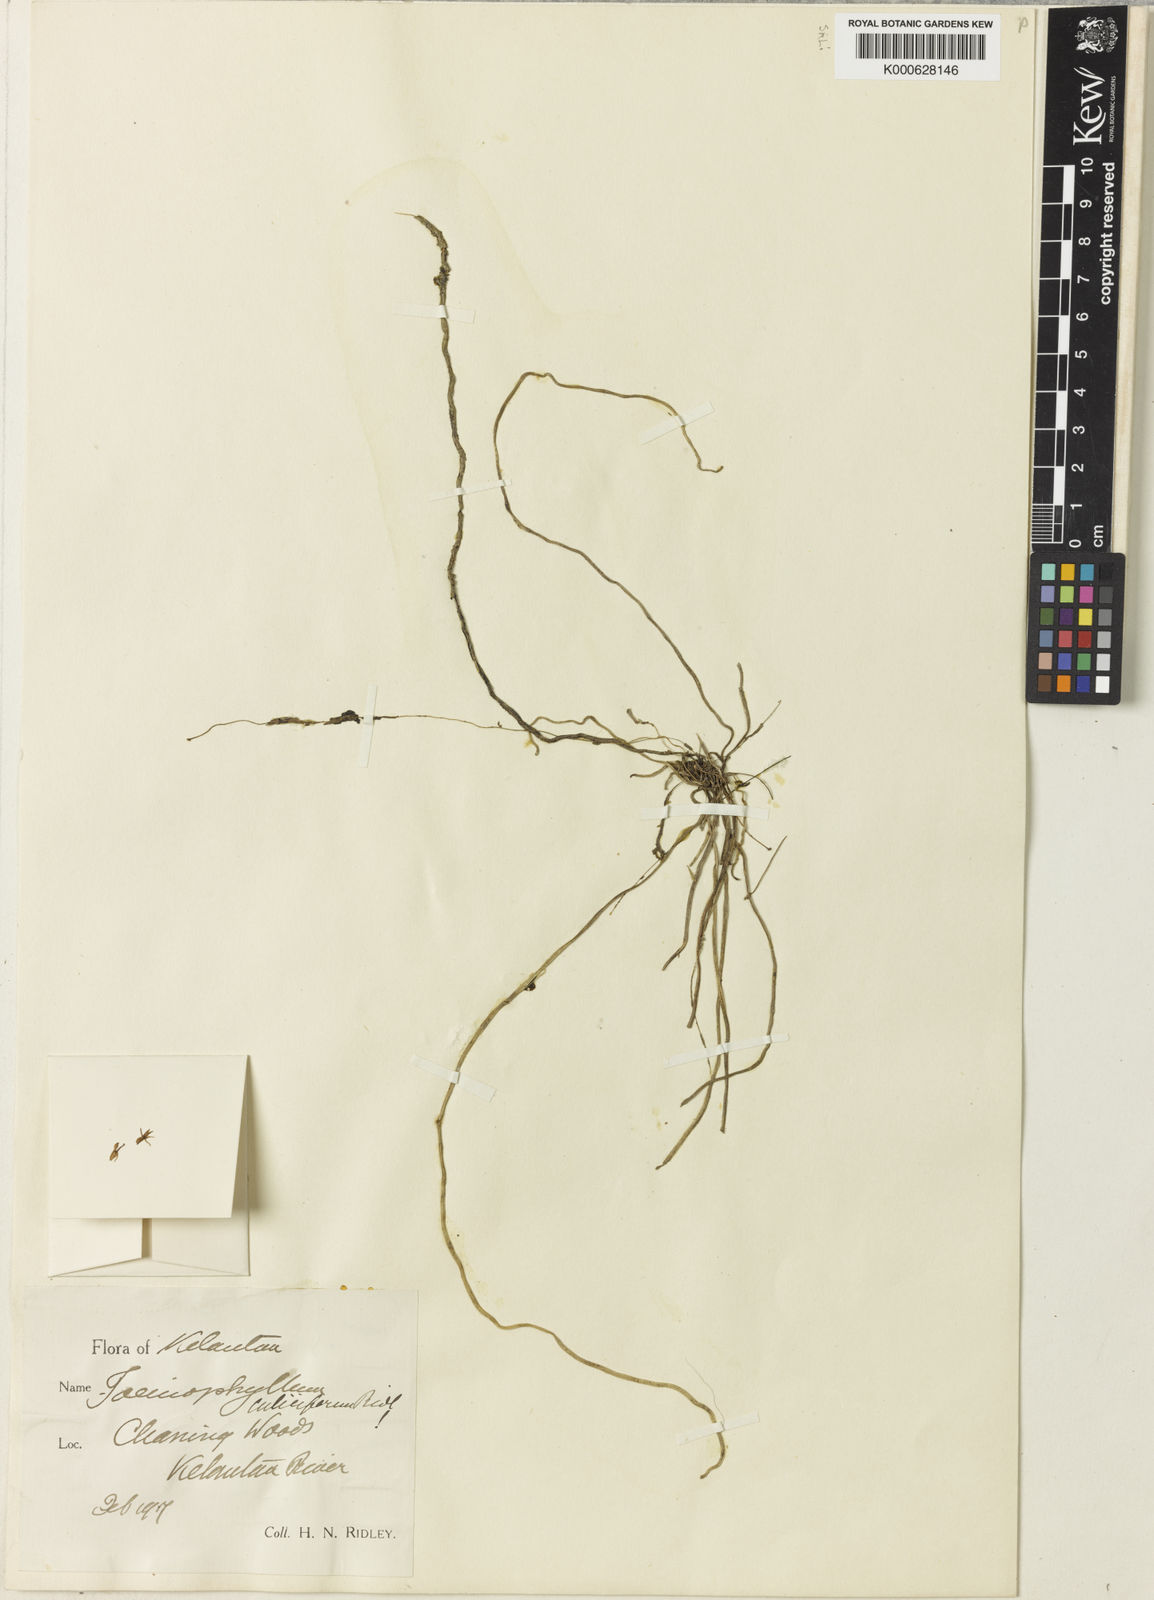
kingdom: Plantae
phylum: Tracheophyta
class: Liliopsida
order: Asparagales
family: Orchidaceae
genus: Taeniophyllum
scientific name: Taeniophyllum gracillimum
